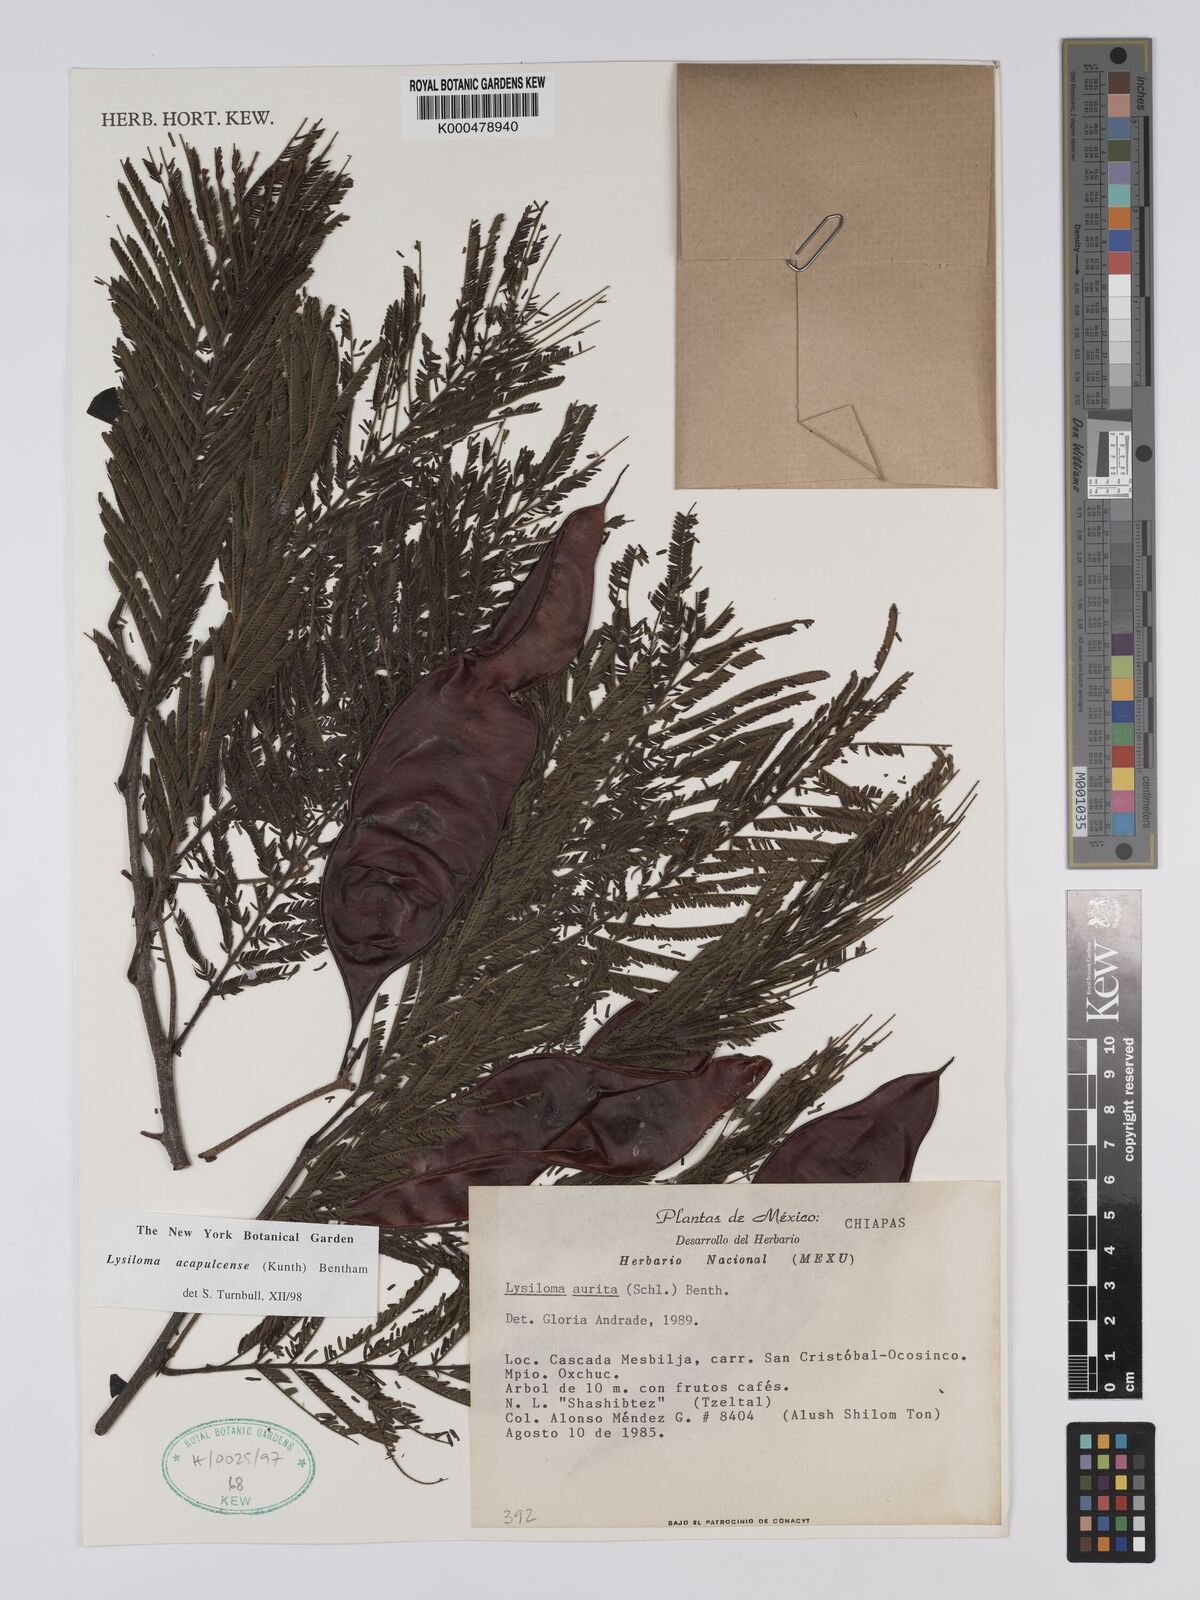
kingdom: Plantae
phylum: Tracheophyta
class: Magnoliopsida
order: Fabales
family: Fabaceae
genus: Lysiloma
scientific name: Lysiloma
